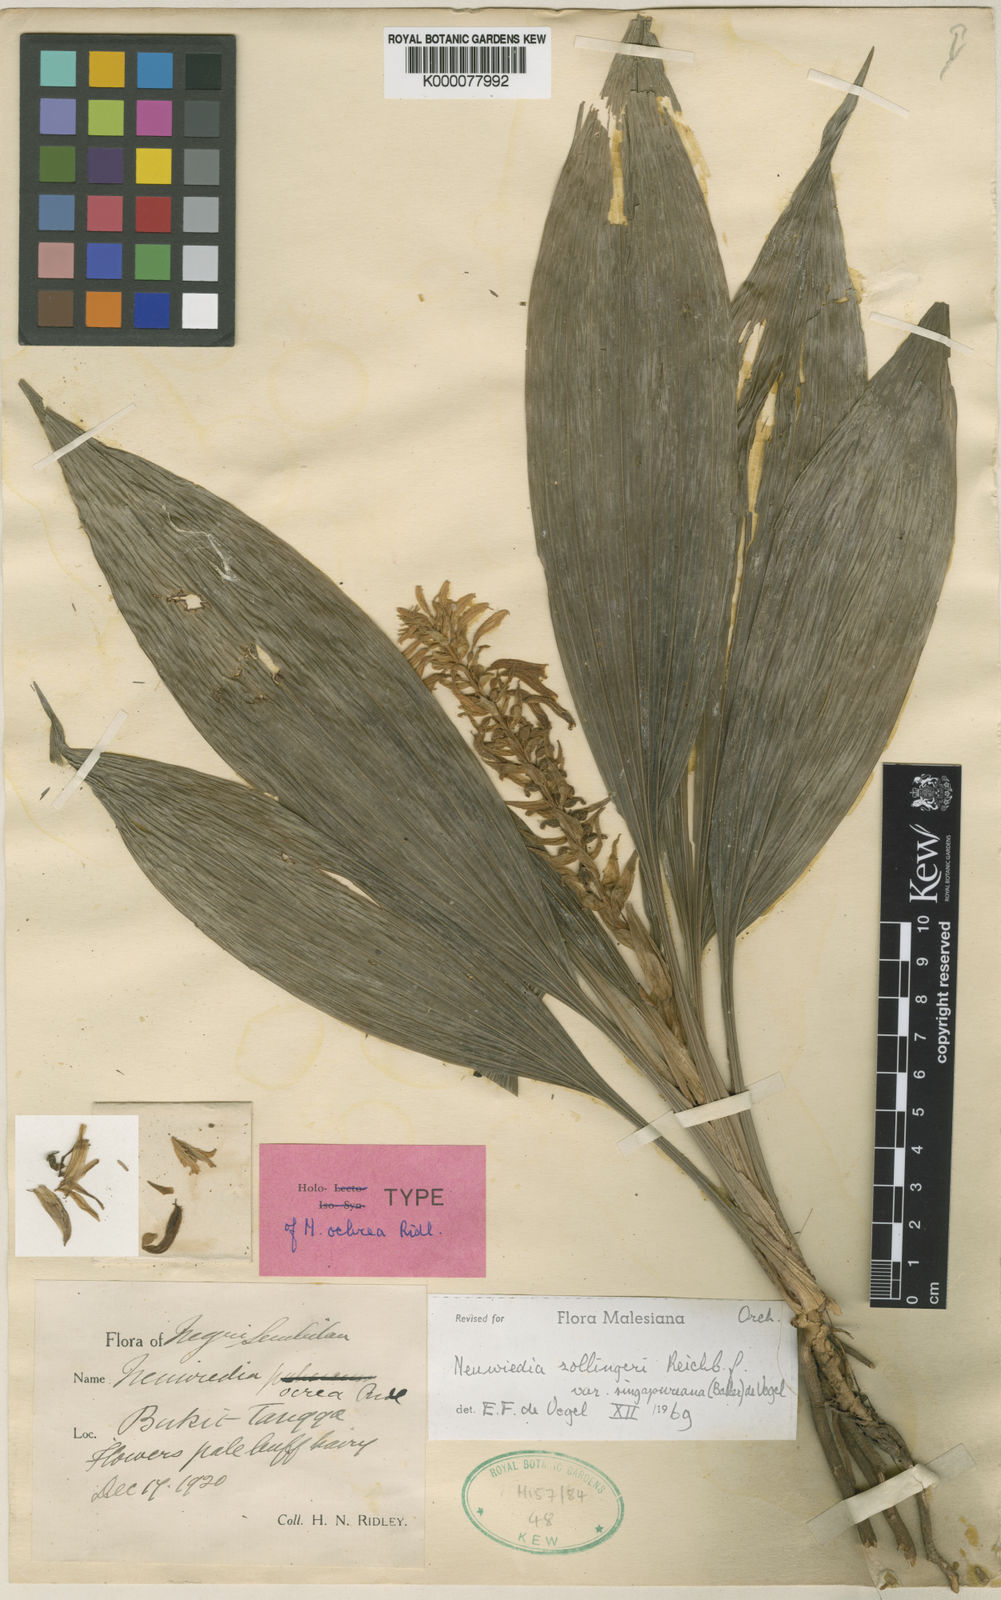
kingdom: Plantae
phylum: Tracheophyta
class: Liliopsida
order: Asparagales
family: Orchidaceae
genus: Neuwiedia
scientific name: Neuwiedia zollingeri
